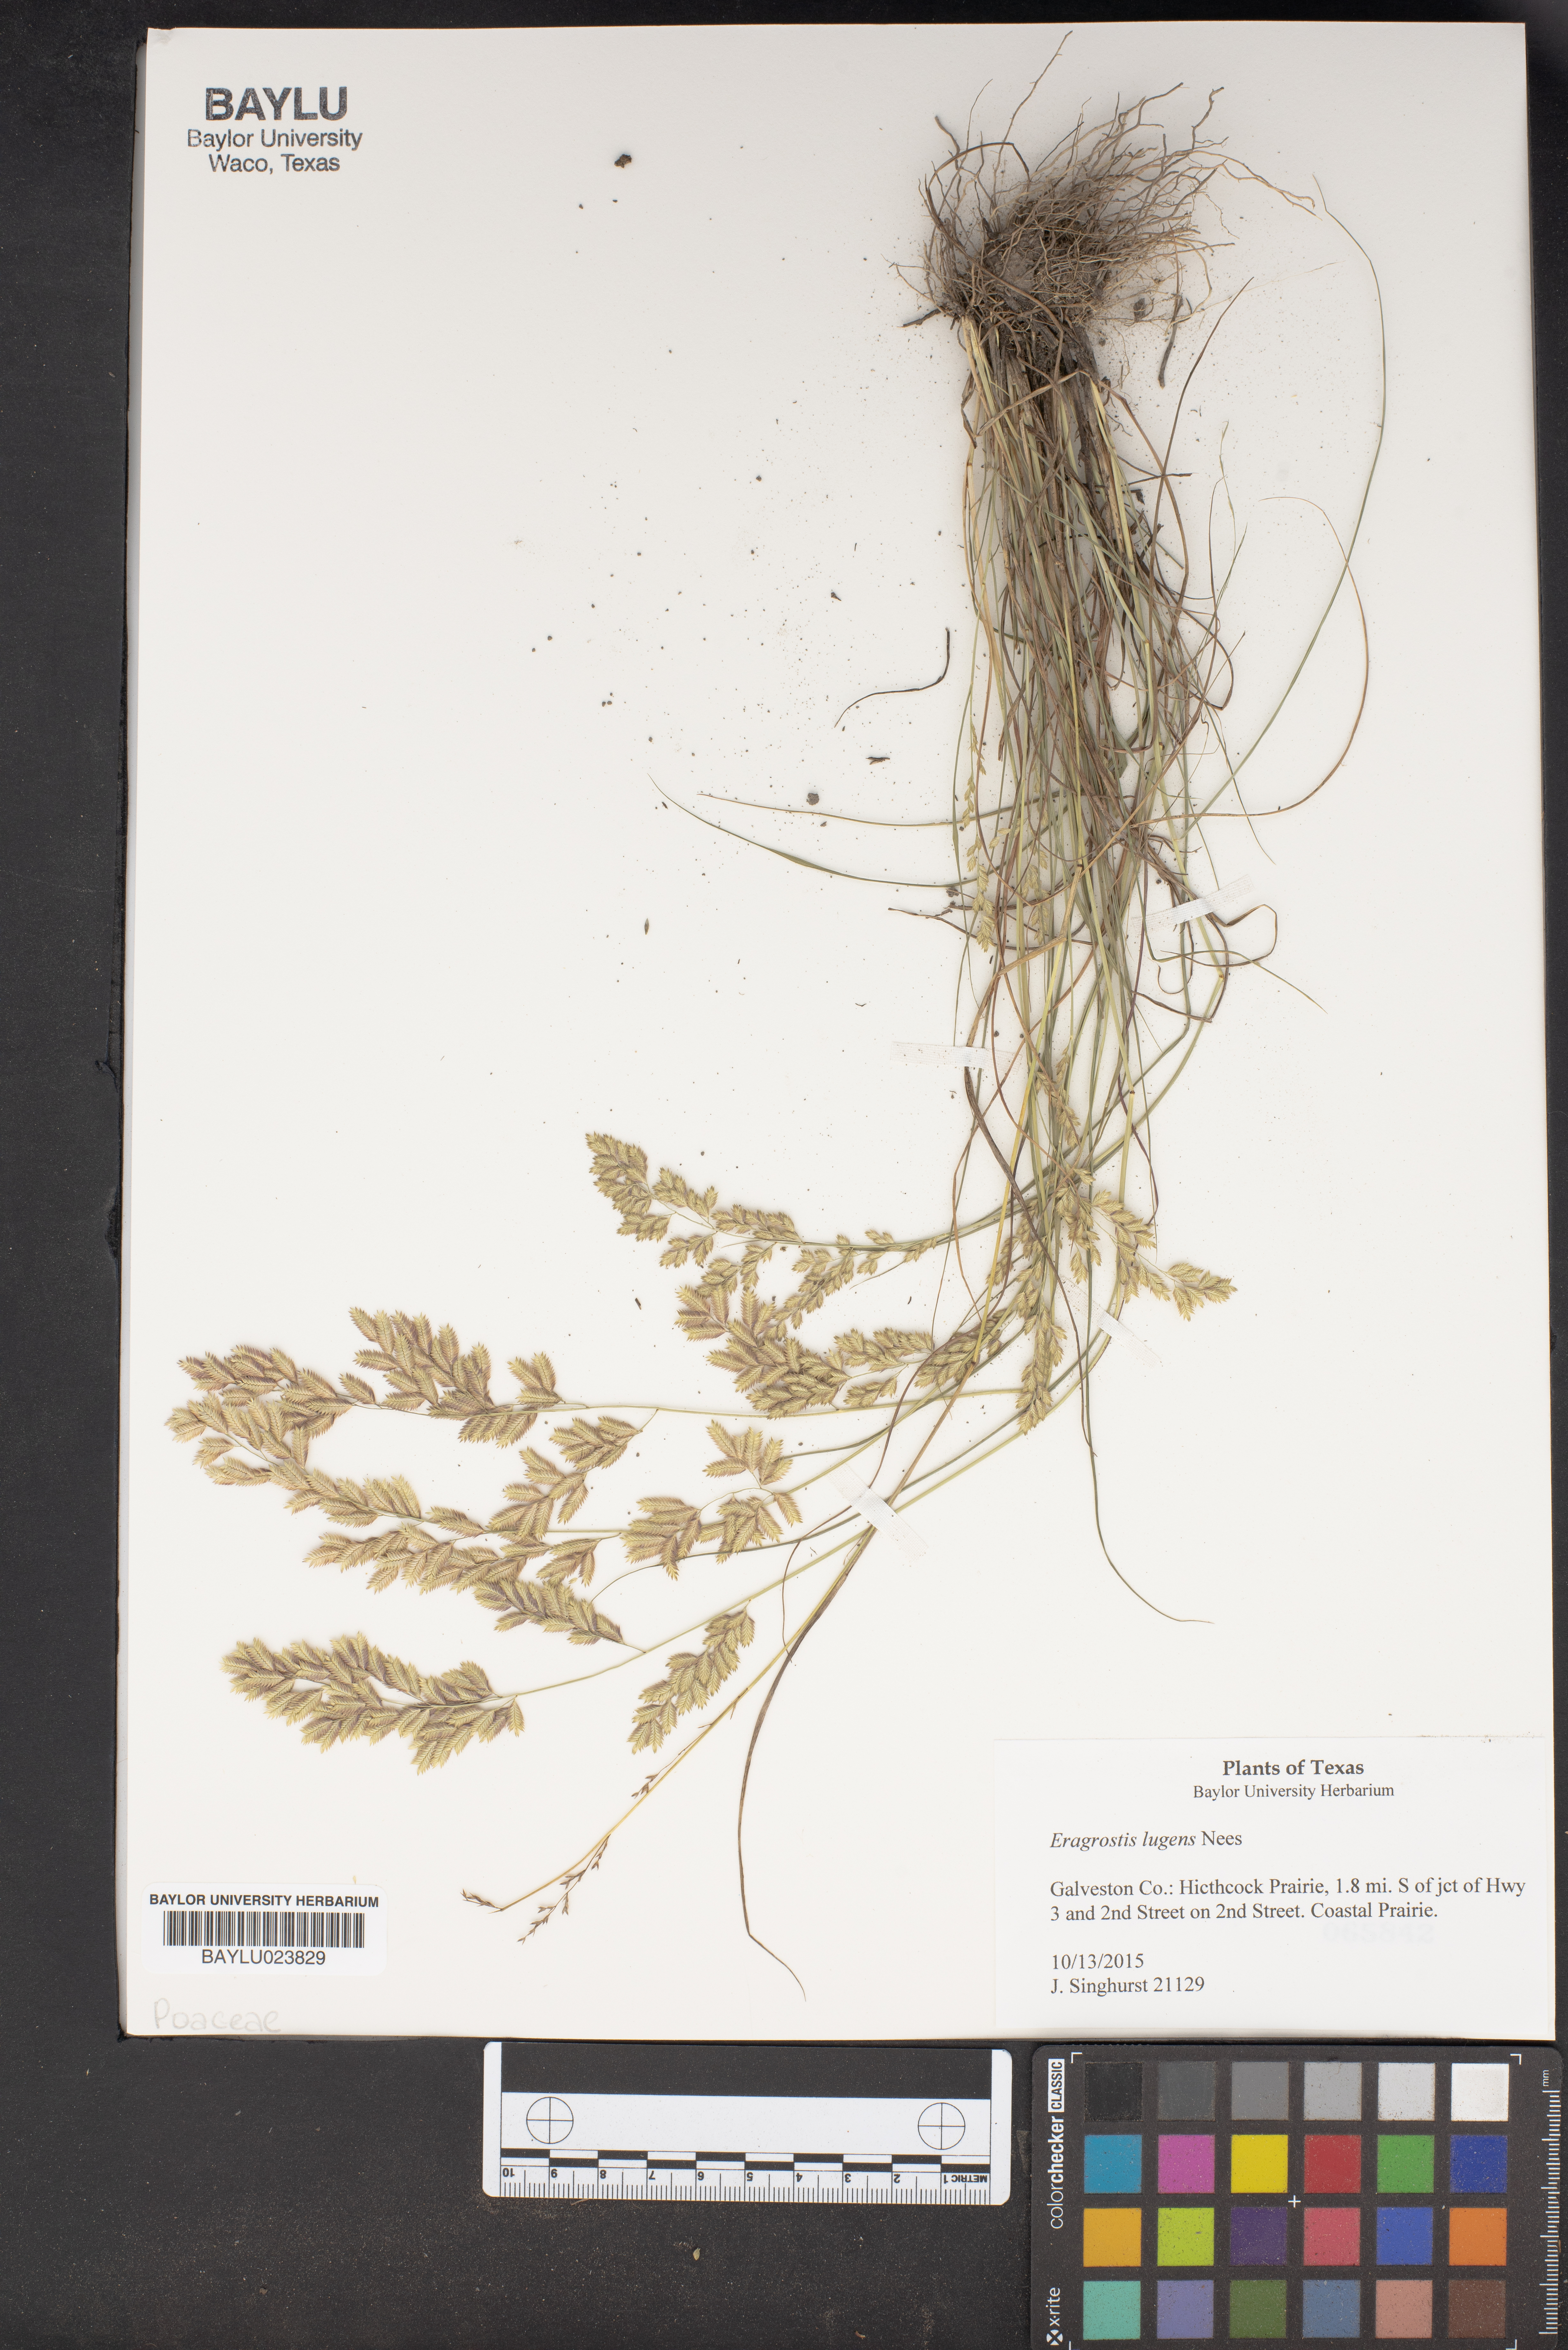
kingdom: Plantae
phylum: Tracheophyta
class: Liliopsida
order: Poales
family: Poaceae
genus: Eragrostis
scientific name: Eragrostis capillaris
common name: Hair-like lovegrass
